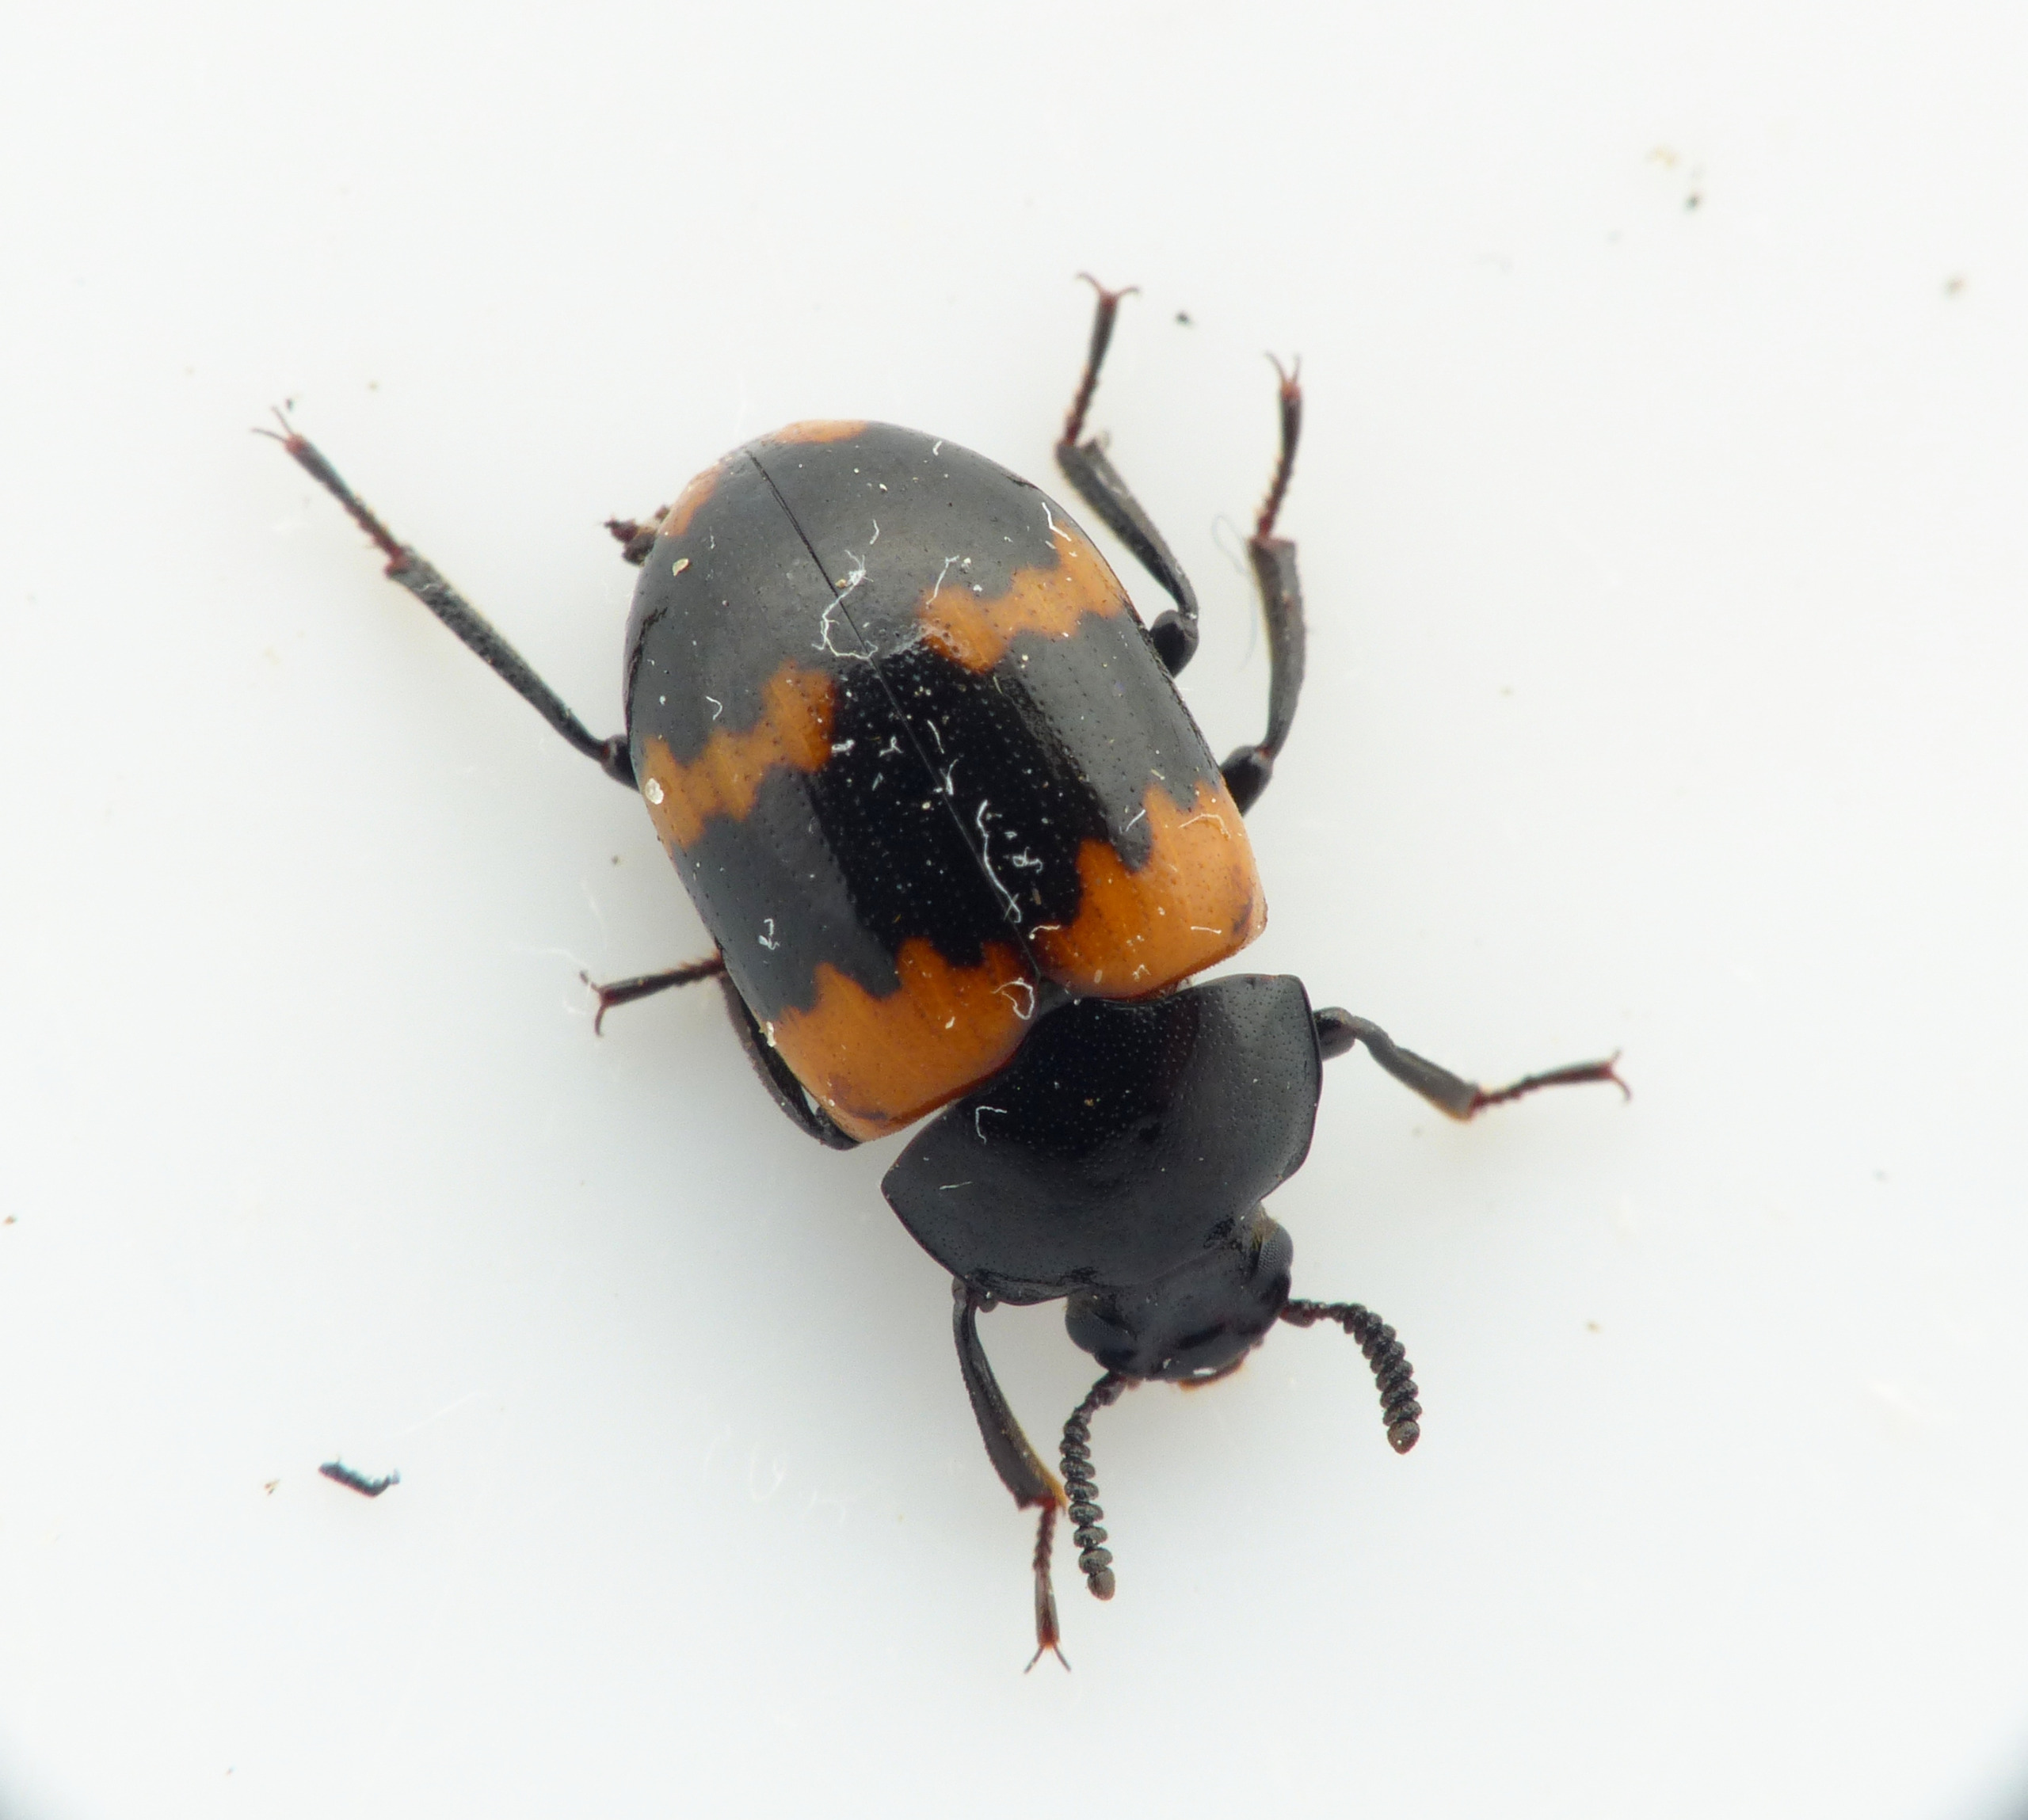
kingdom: Animalia
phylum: Arthropoda
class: Insecta
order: Coleoptera
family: Tenebrionidae
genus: Diaperis
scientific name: Diaperis boleti
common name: Tigerskyggebille
